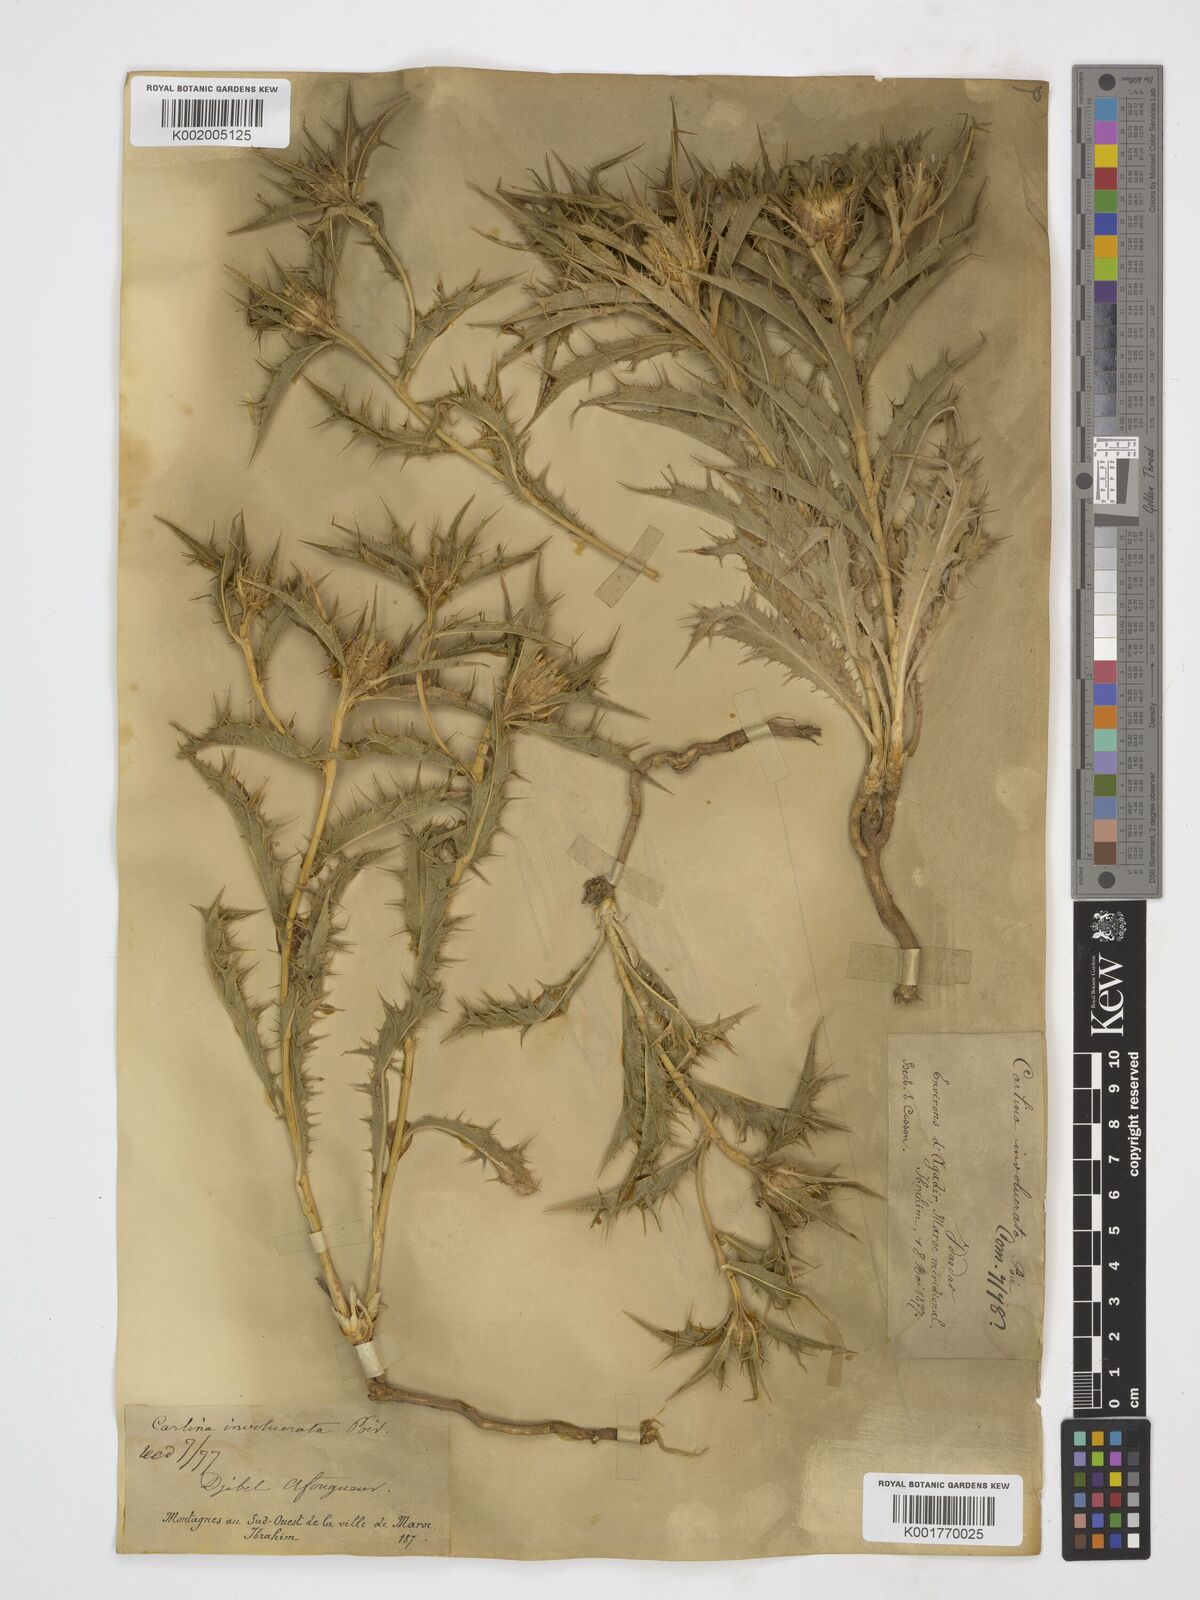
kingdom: Plantae
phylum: Tracheophyta
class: Magnoliopsida
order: Asterales
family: Asteraceae
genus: Carlina
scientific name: Carlina involucrata
